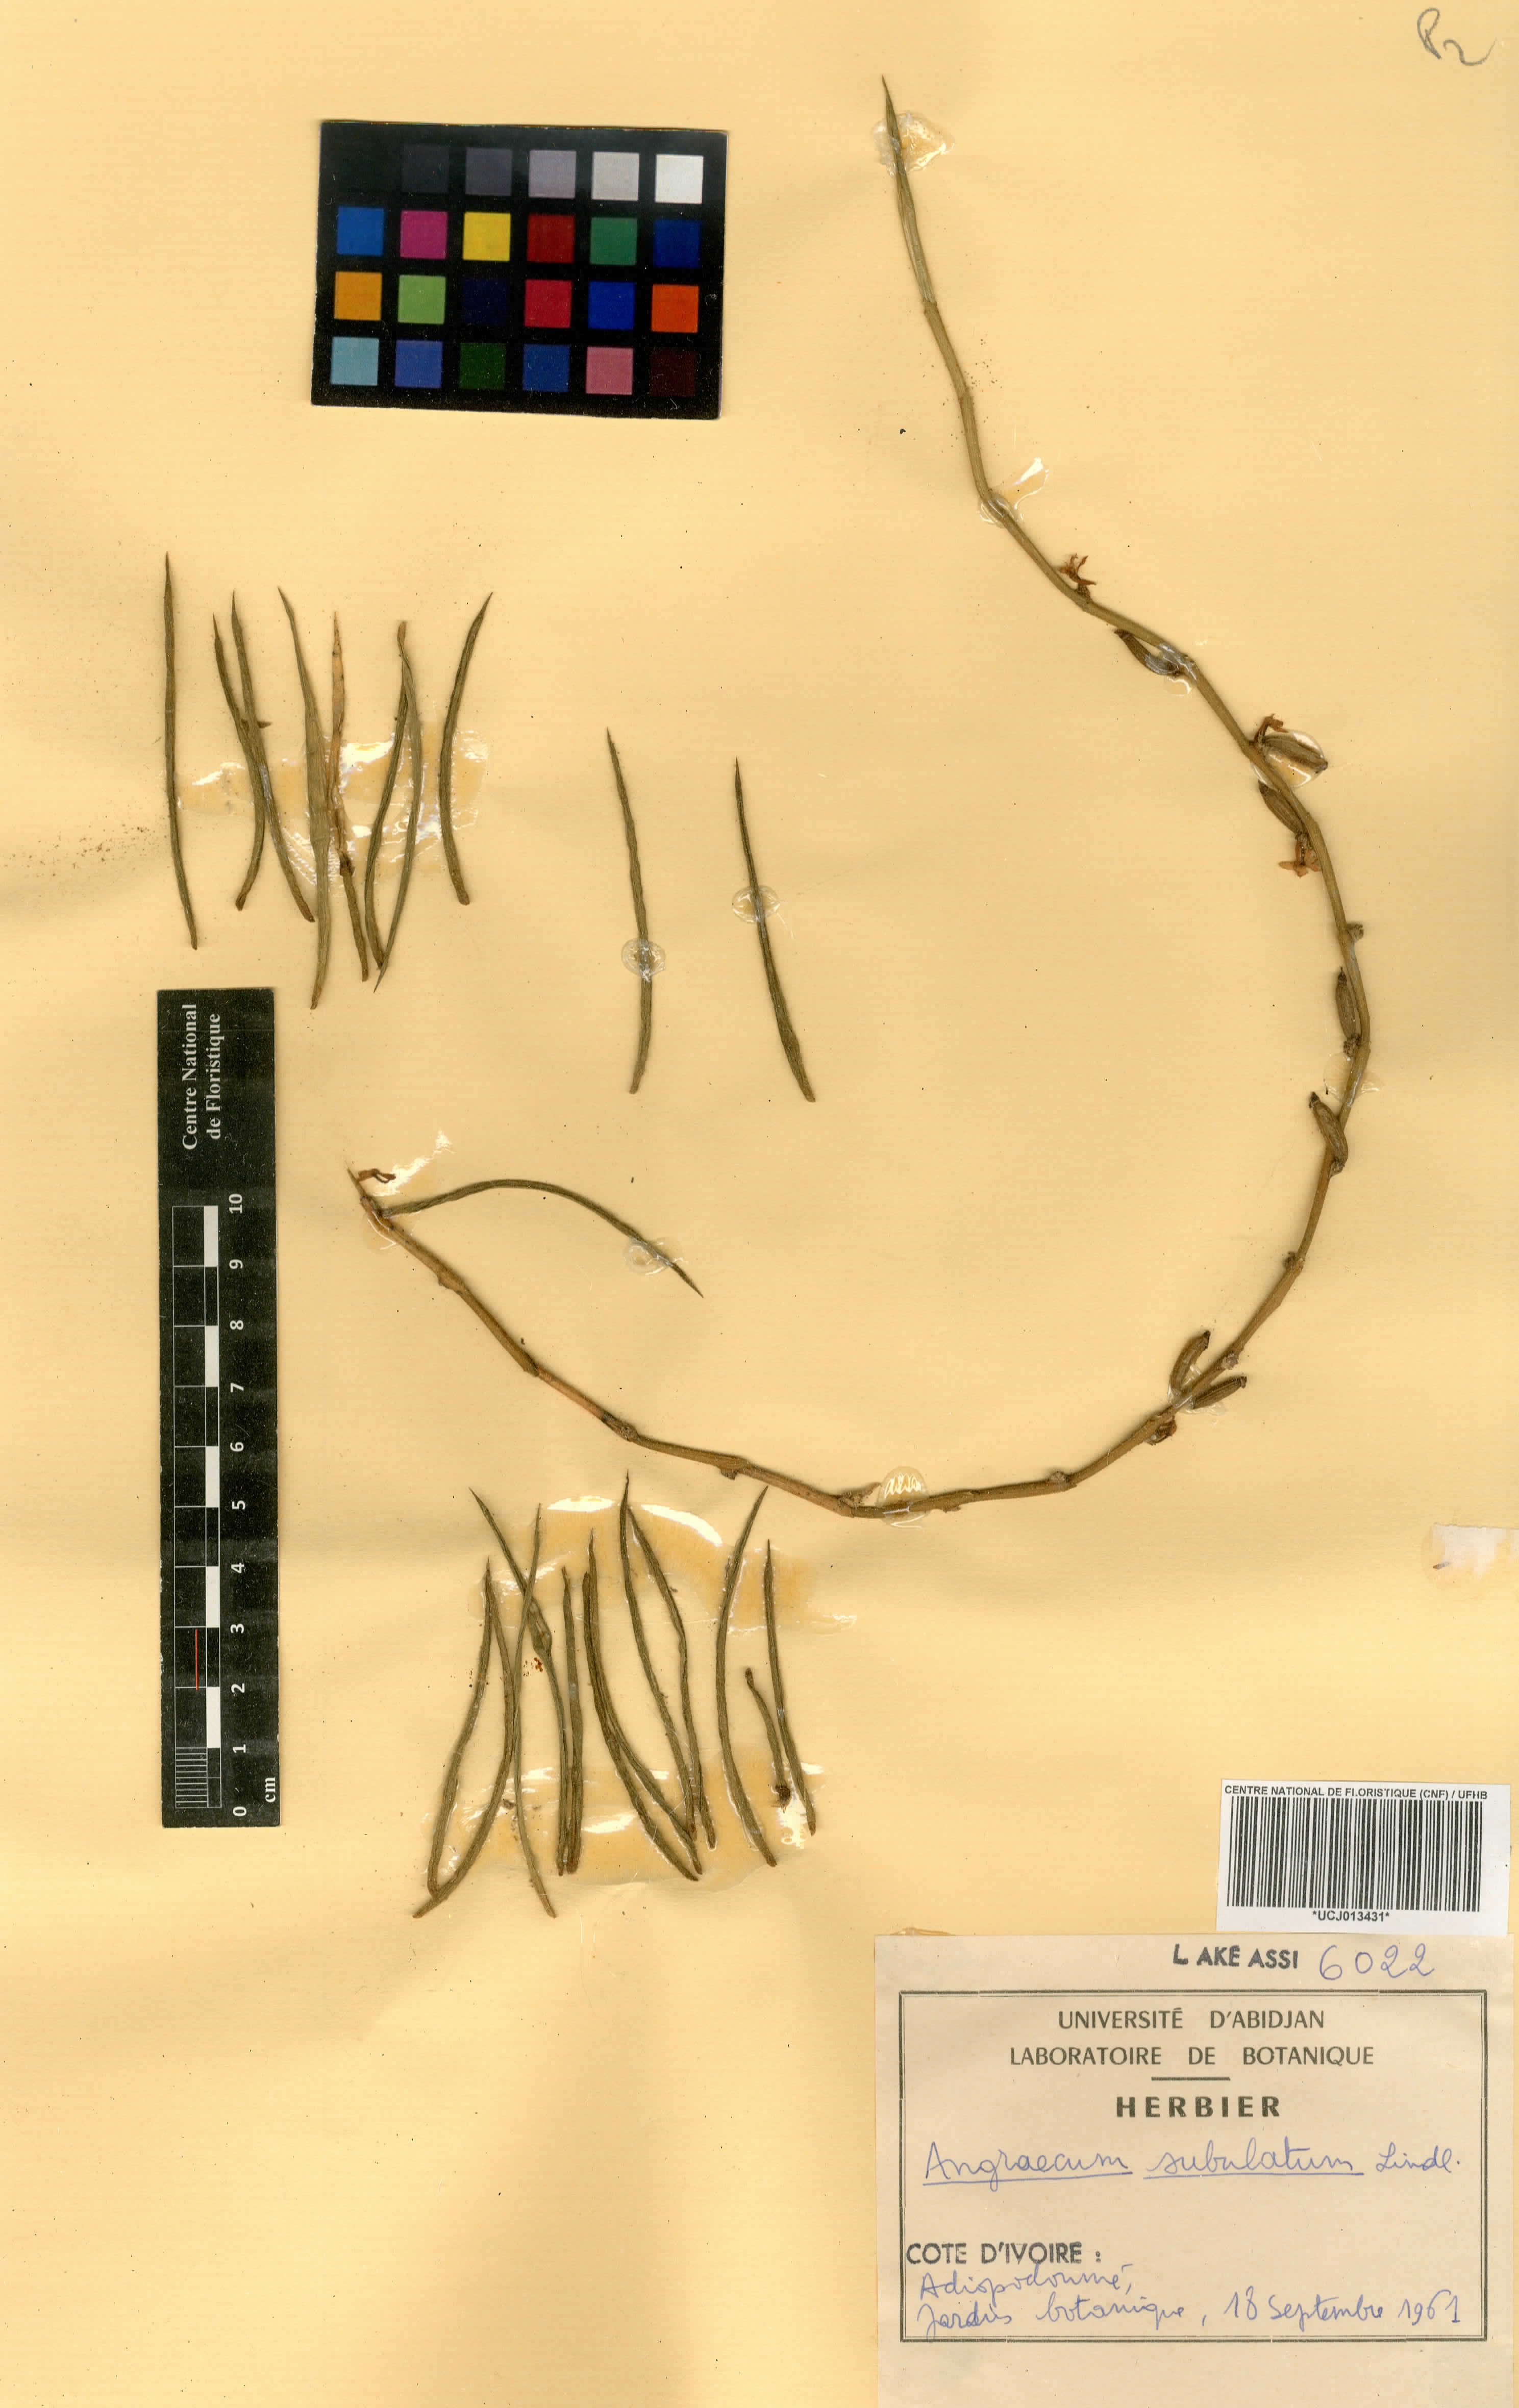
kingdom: Plantae
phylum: Tracheophyta
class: Liliopsida
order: Asparagales
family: Orchidaceae
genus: Afropectinariella
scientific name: Afropectinariella subulata
